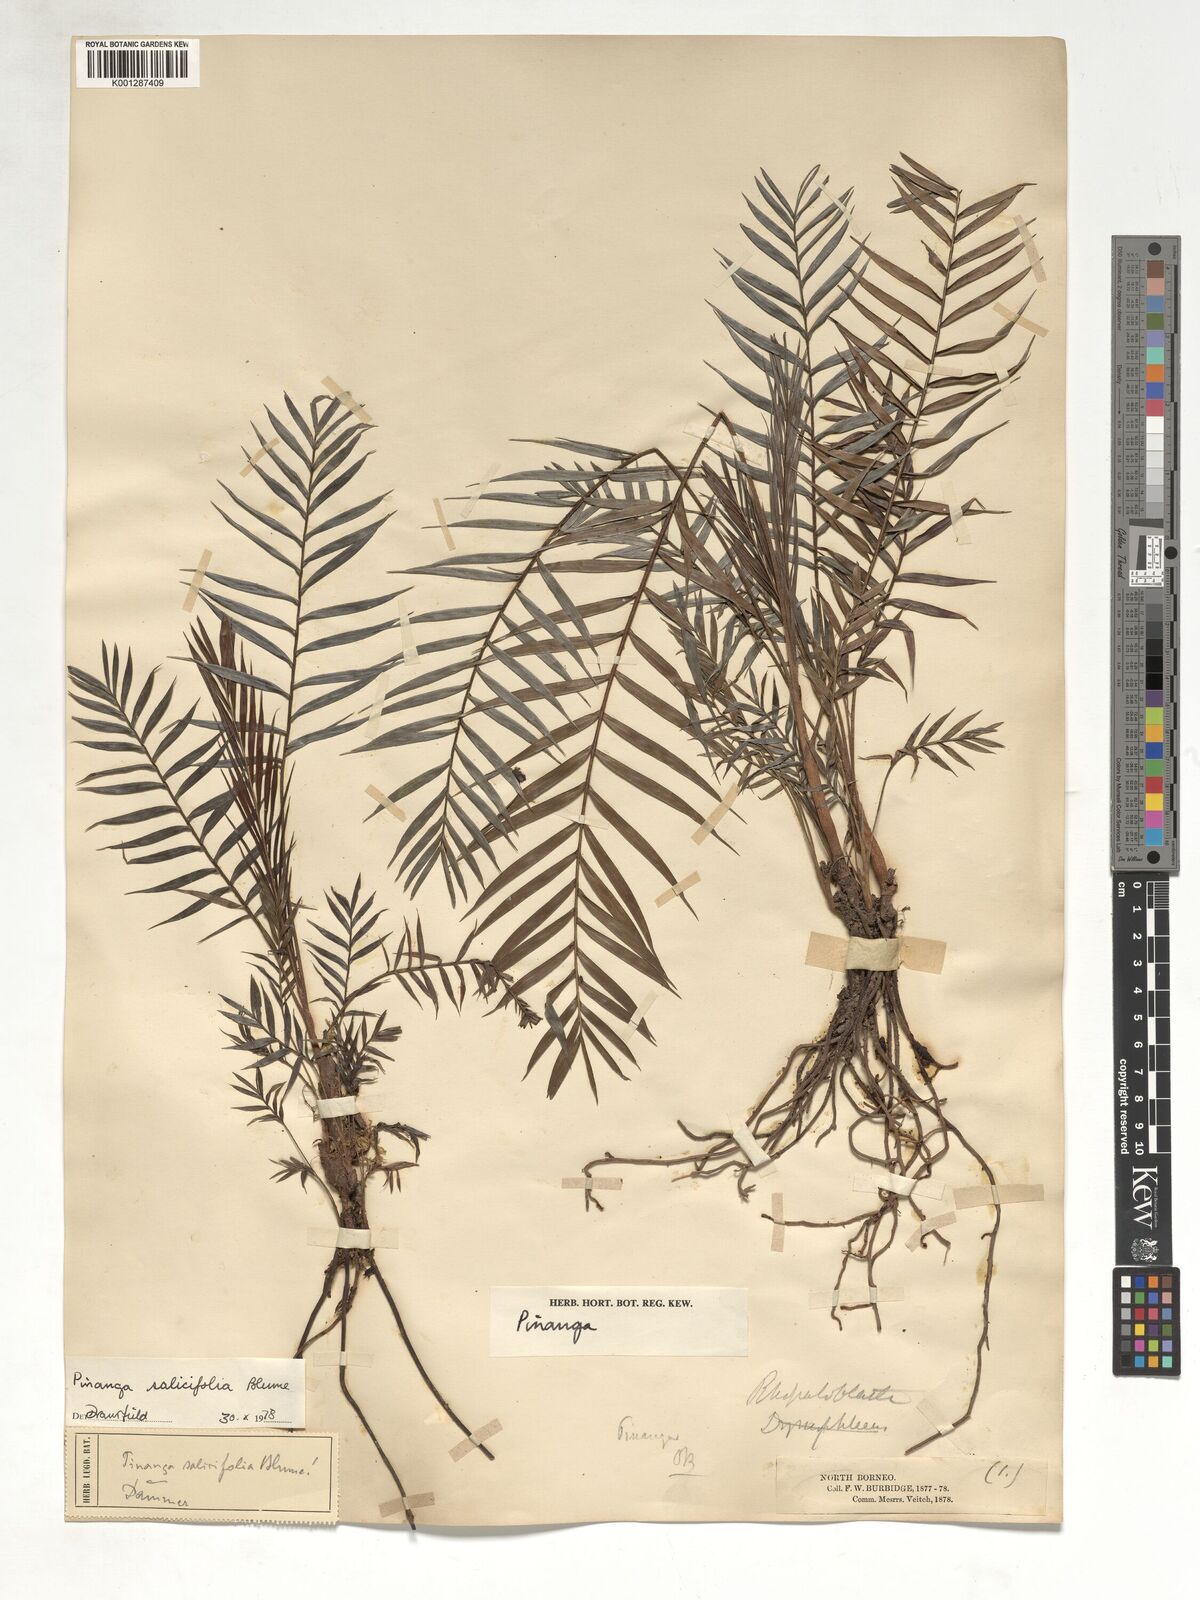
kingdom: Plantae
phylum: Tracheophyta
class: Liliopsida
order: Arecales
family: Arecaceae
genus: Pinanga
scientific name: Pinanga salicifolia
